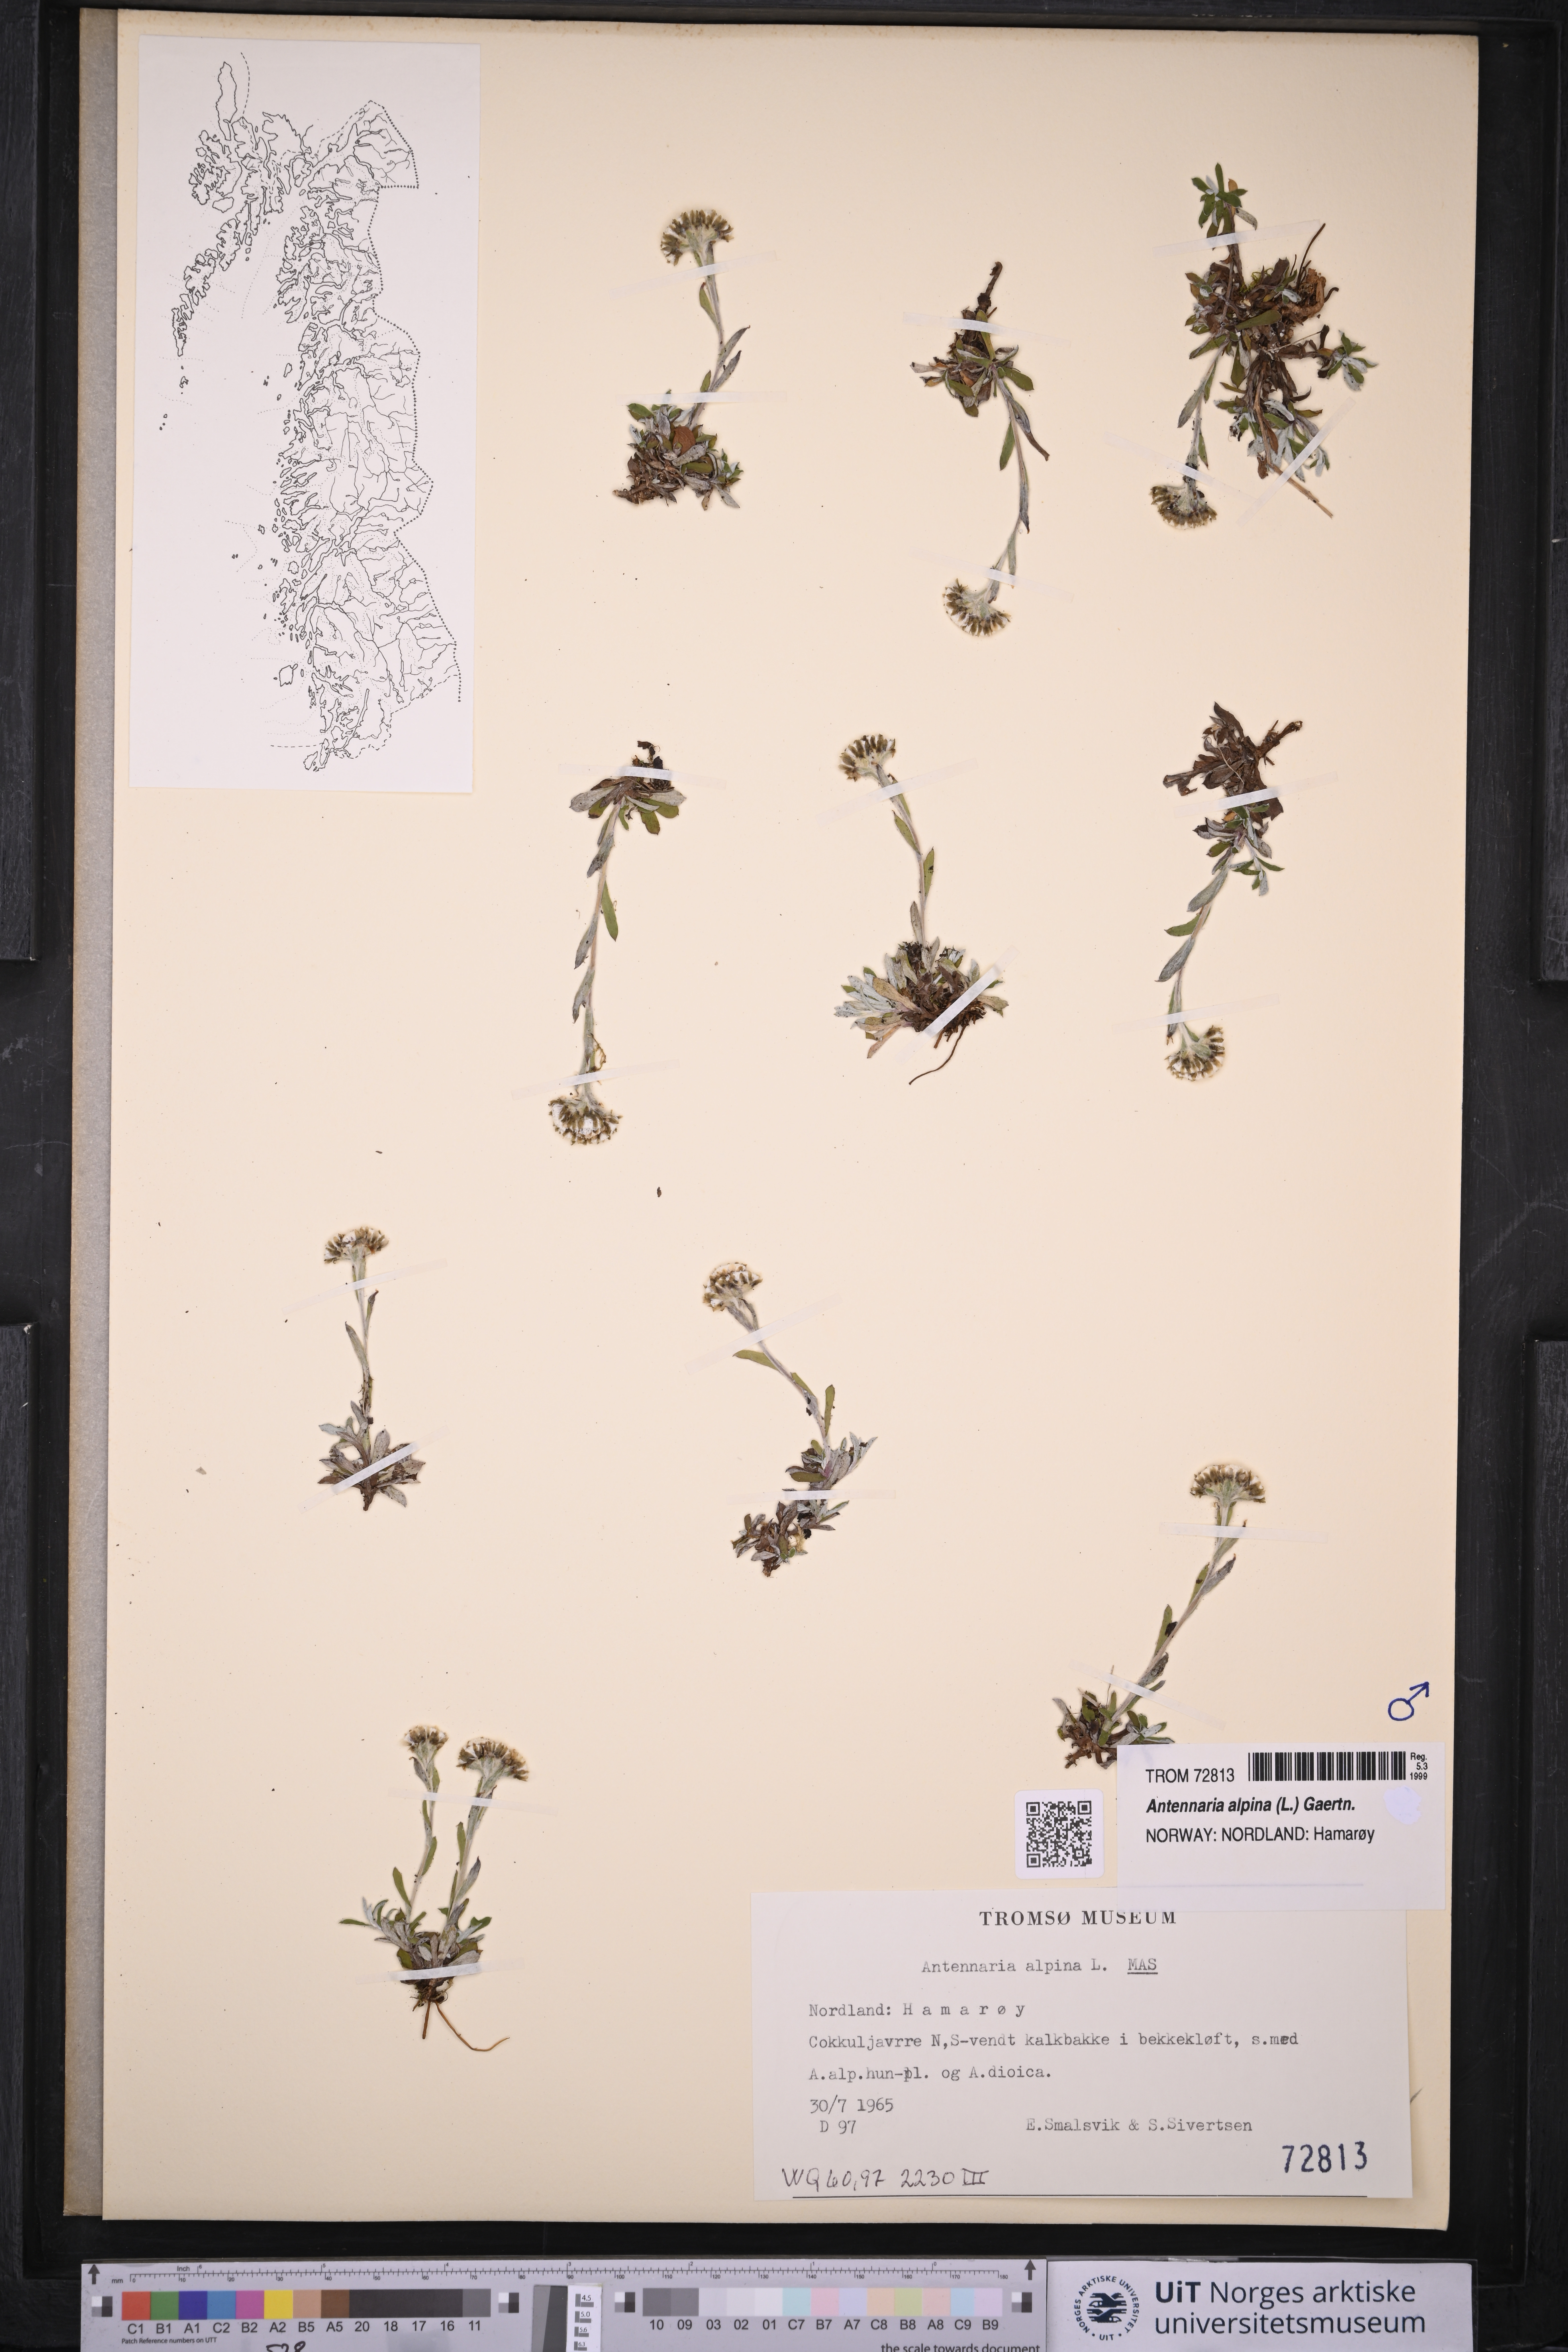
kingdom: Plantae
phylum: Tracheophyta
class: Magnoliopsida
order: Asterales
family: Asteraceae
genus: Antennaria
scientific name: Antennaria alpina
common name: Alpine pussytoes
